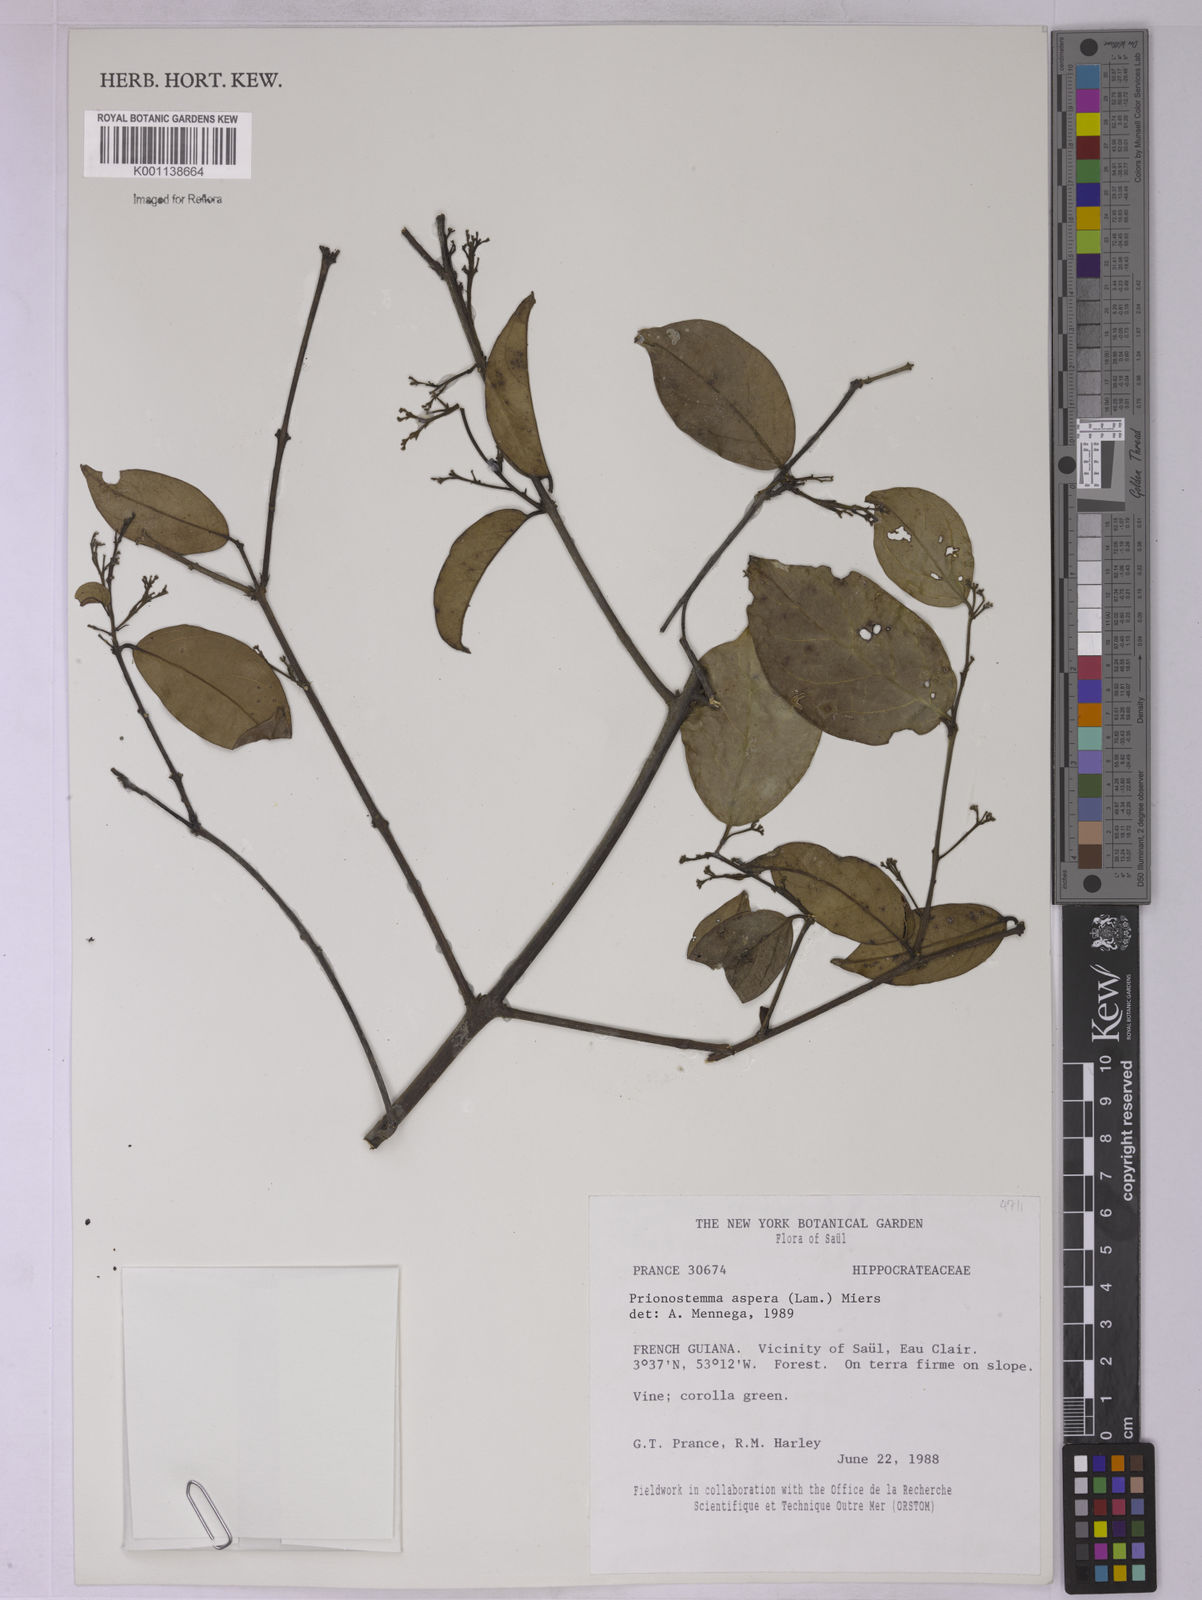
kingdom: Plantae
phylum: Tracheophyta
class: Magnoliopsida
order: Celastrales
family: Celastraceae
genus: Prionostemma
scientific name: Prionostemma aspera
